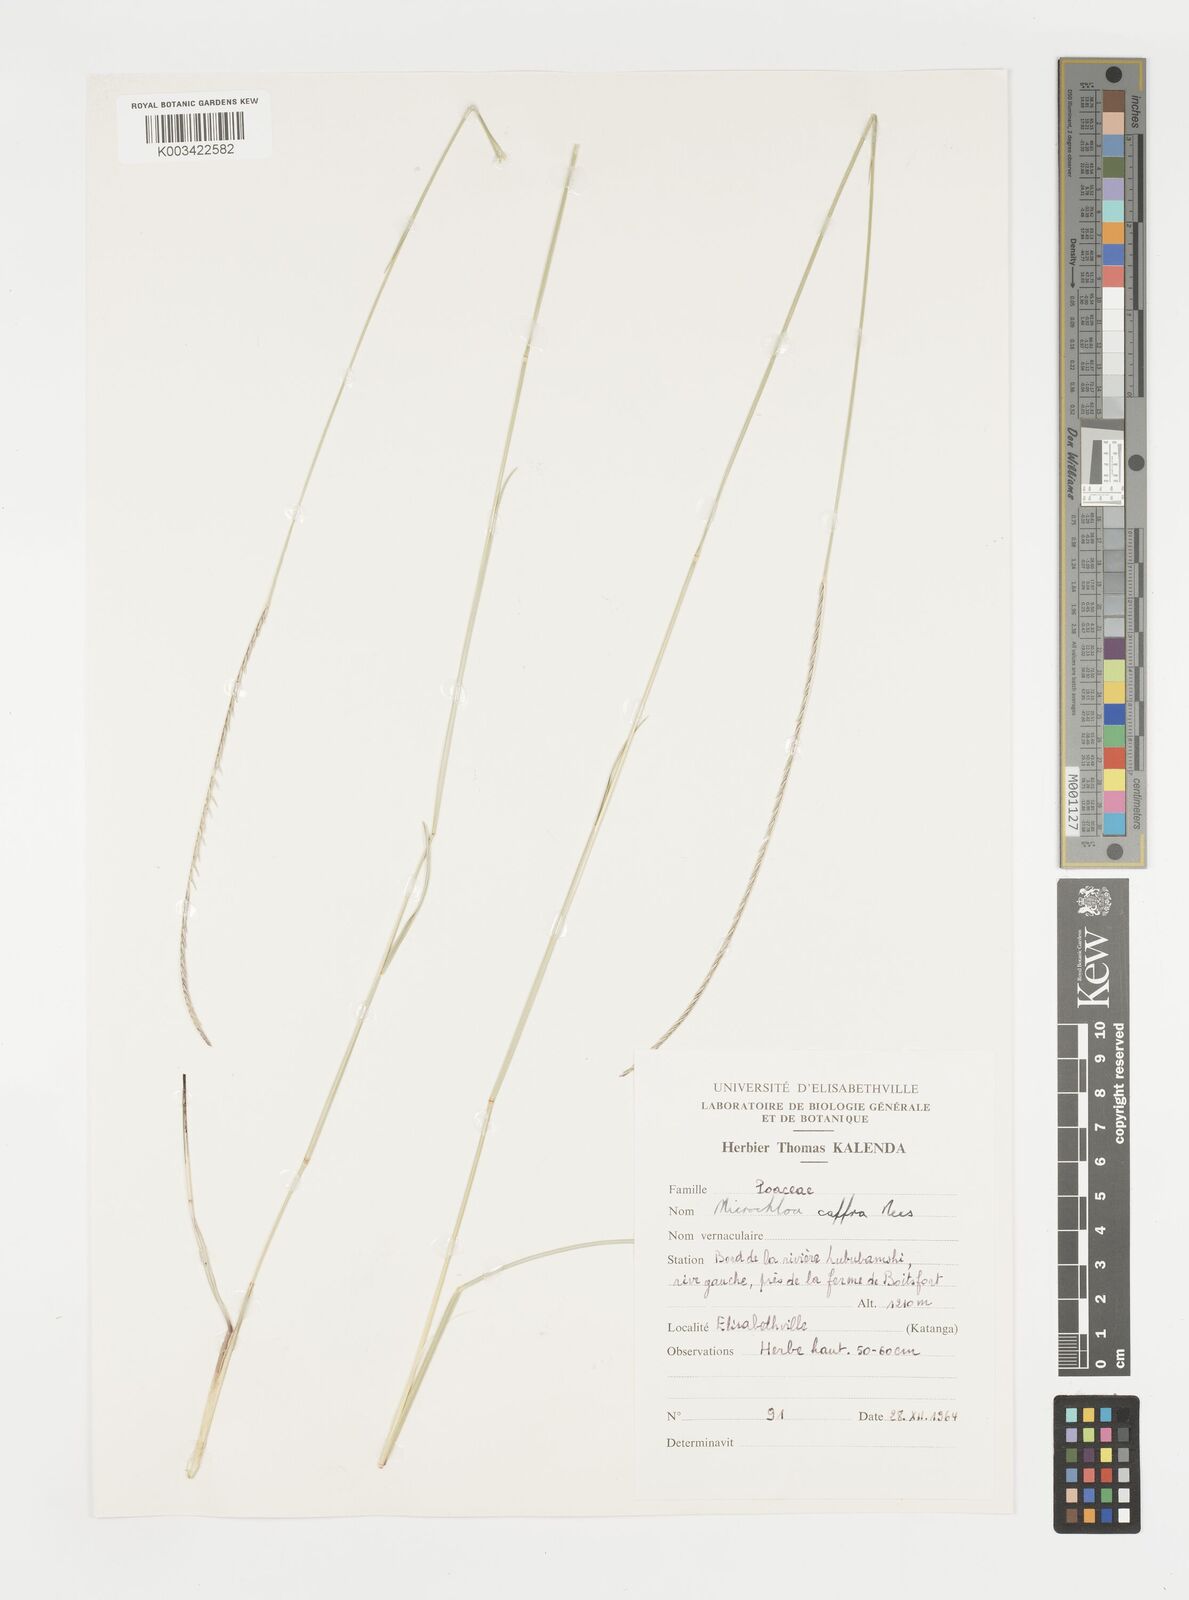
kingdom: Plantae
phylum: Tracheophyta
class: Liliopsida
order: Poales
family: Poaceae
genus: Microchloa
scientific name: Microchloa caffra
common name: Pincushion grass
